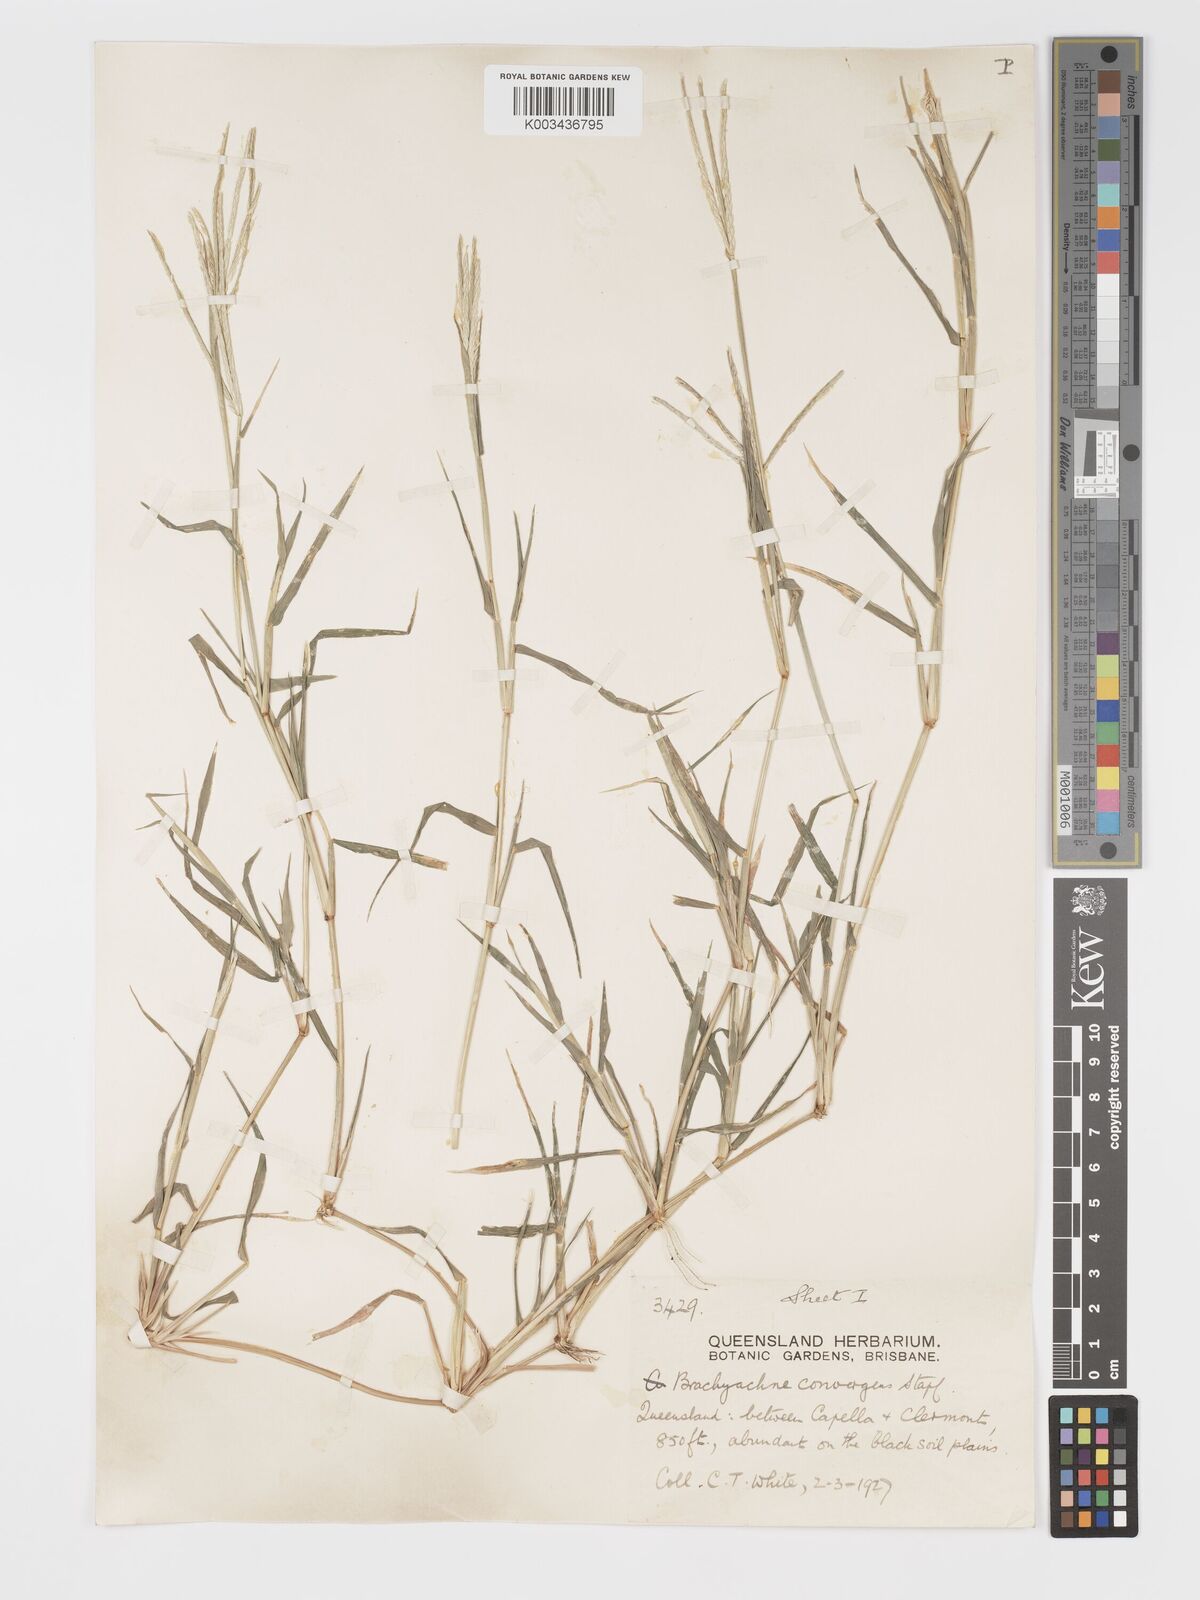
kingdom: Plantae
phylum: Tracheophyta
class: Liliopsida
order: Poales
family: Poaceae
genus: Cynodon
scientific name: Cynodon convergens
